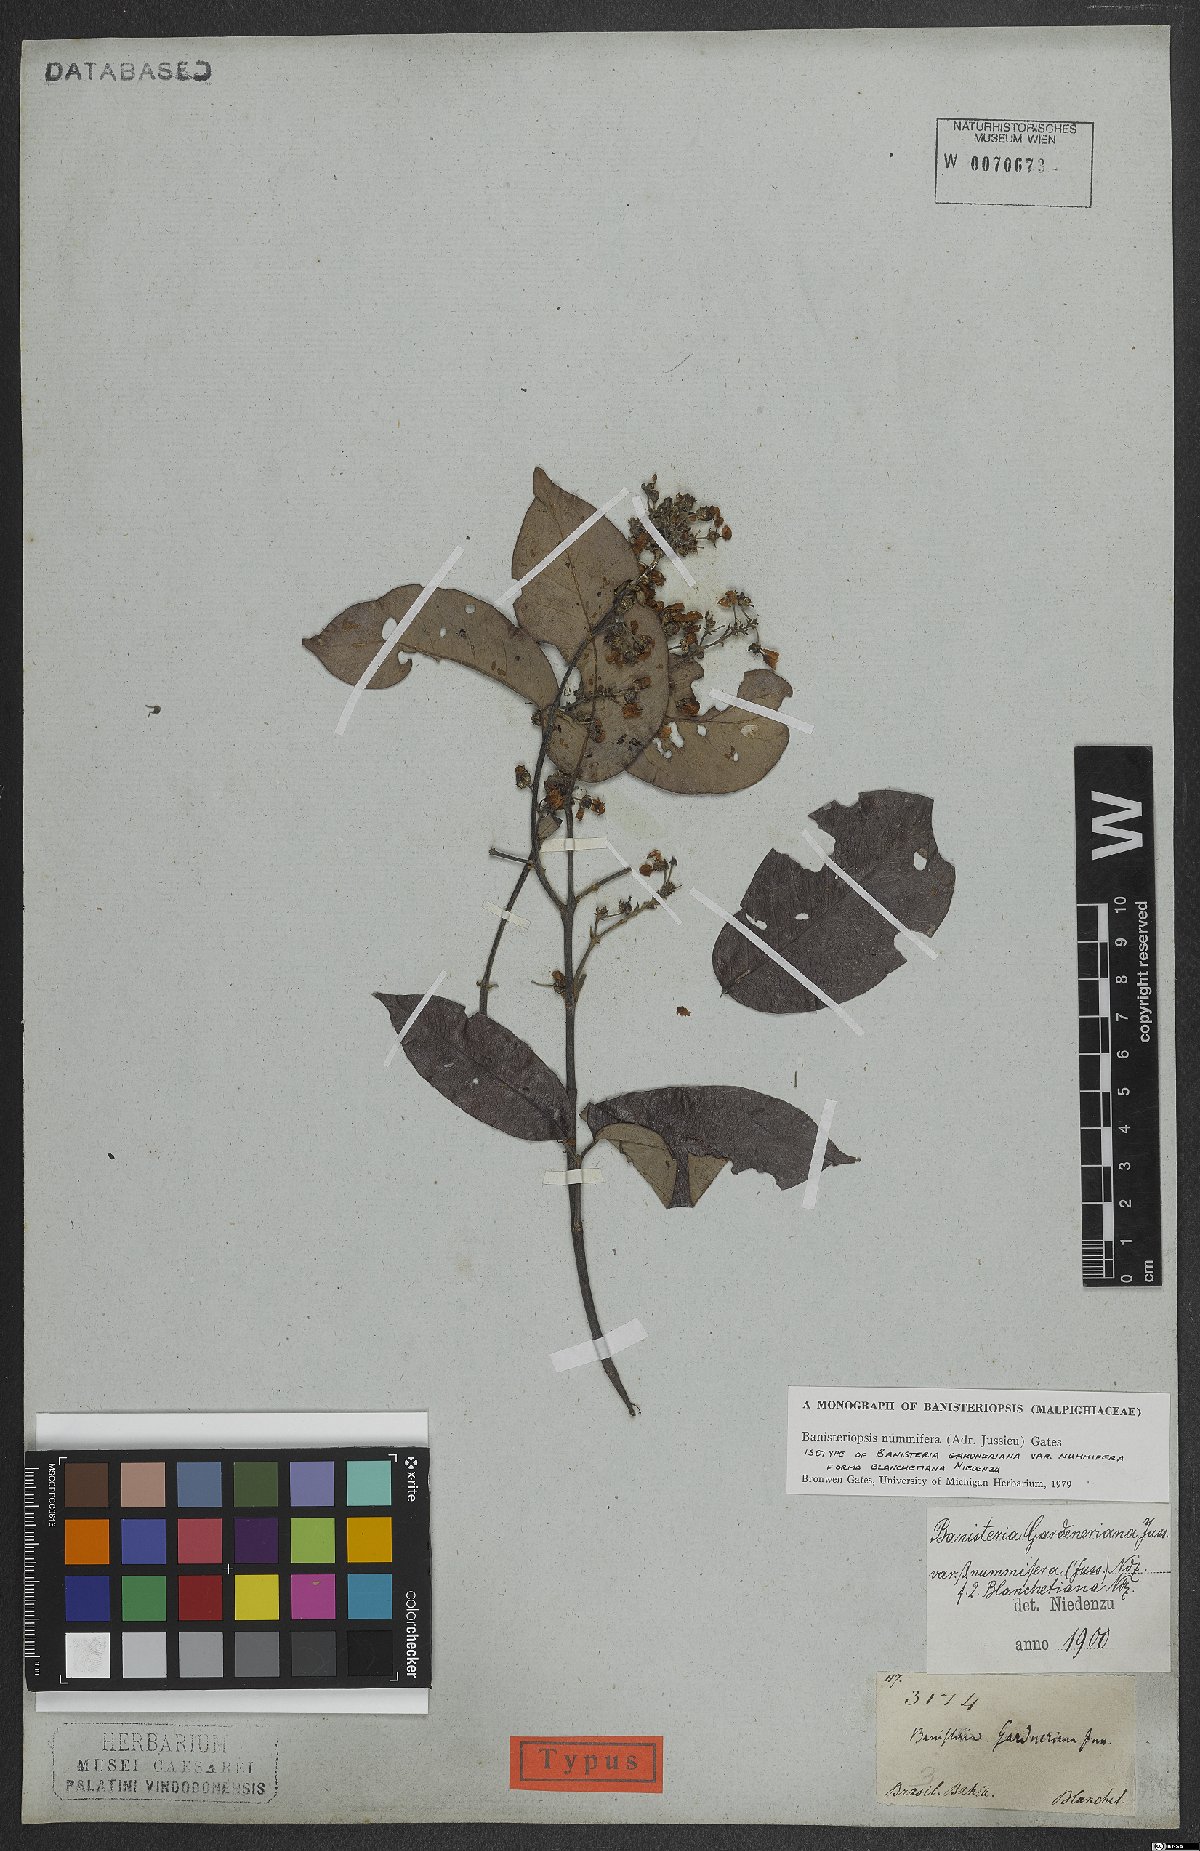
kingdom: Plantae
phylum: Tracheophyta
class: Magnoliopsida
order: Malpighiales
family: Malpighiaceae
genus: Banisteriopsis
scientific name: Banisteriopsis nummifera
